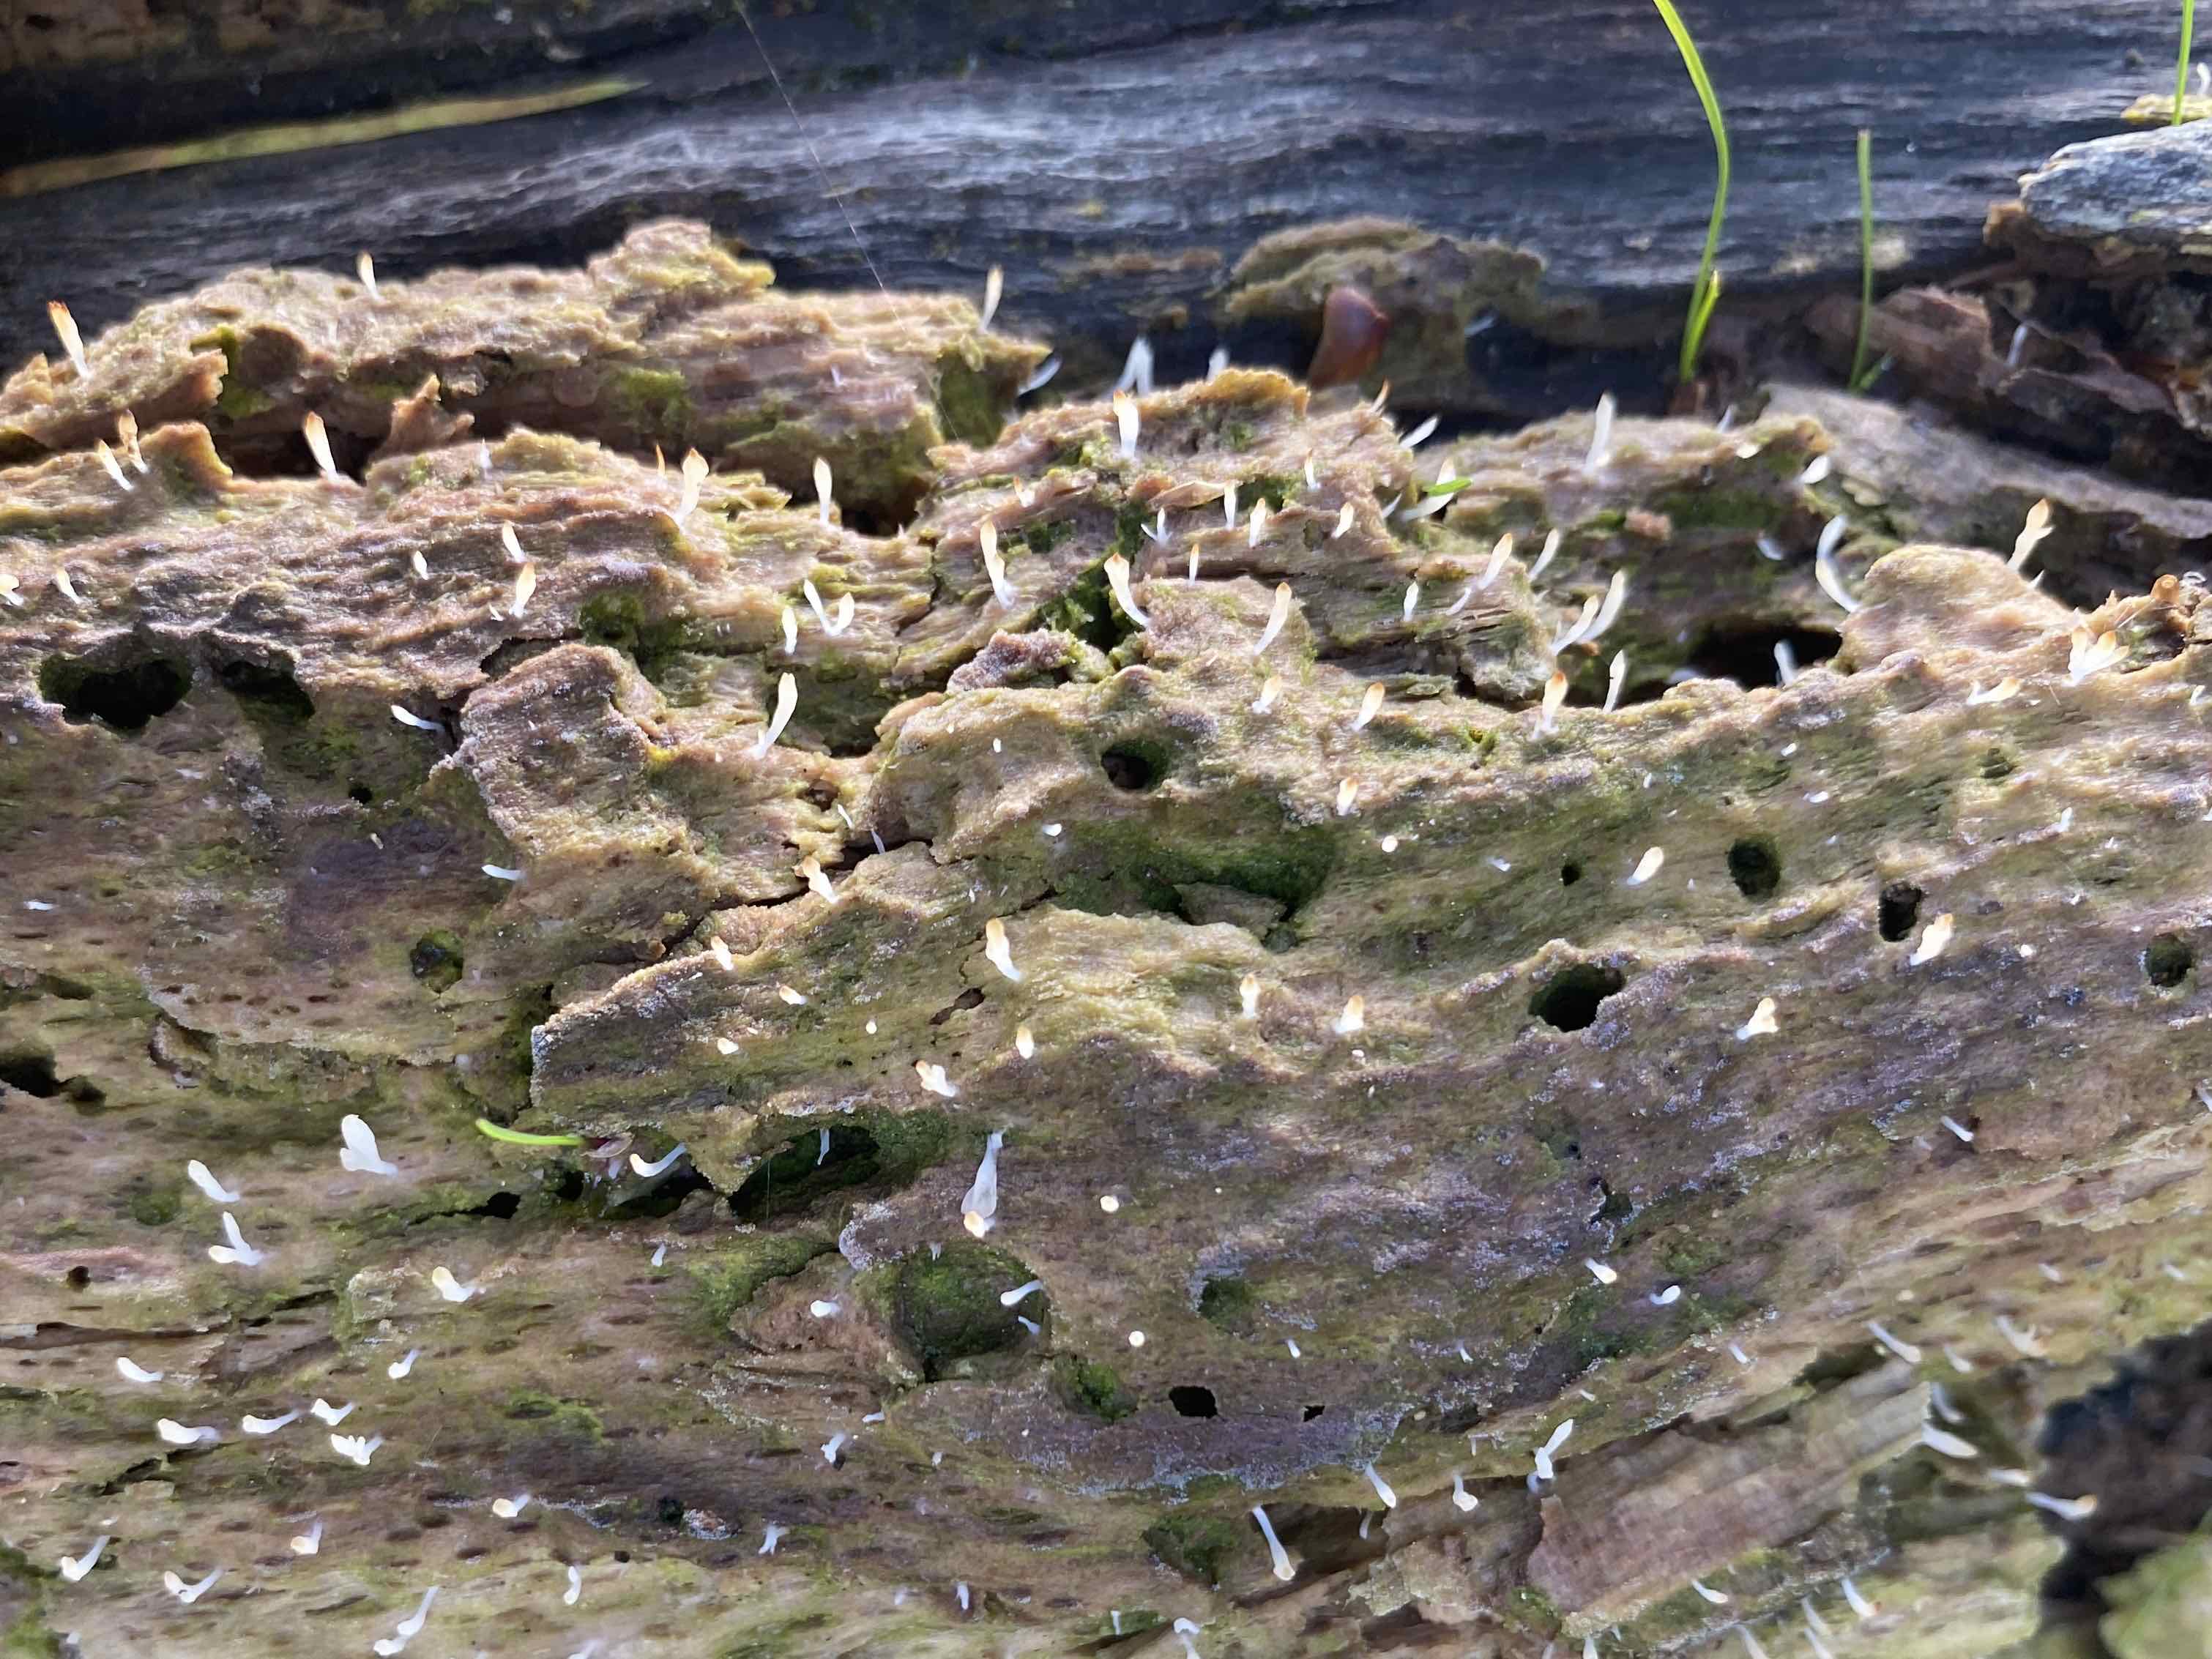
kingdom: Fungi
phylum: Basidiomycota
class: Agaricomycetes
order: Cantharellales
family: Hydnaceae
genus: Multiclavula
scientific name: Multiclavula mucida
